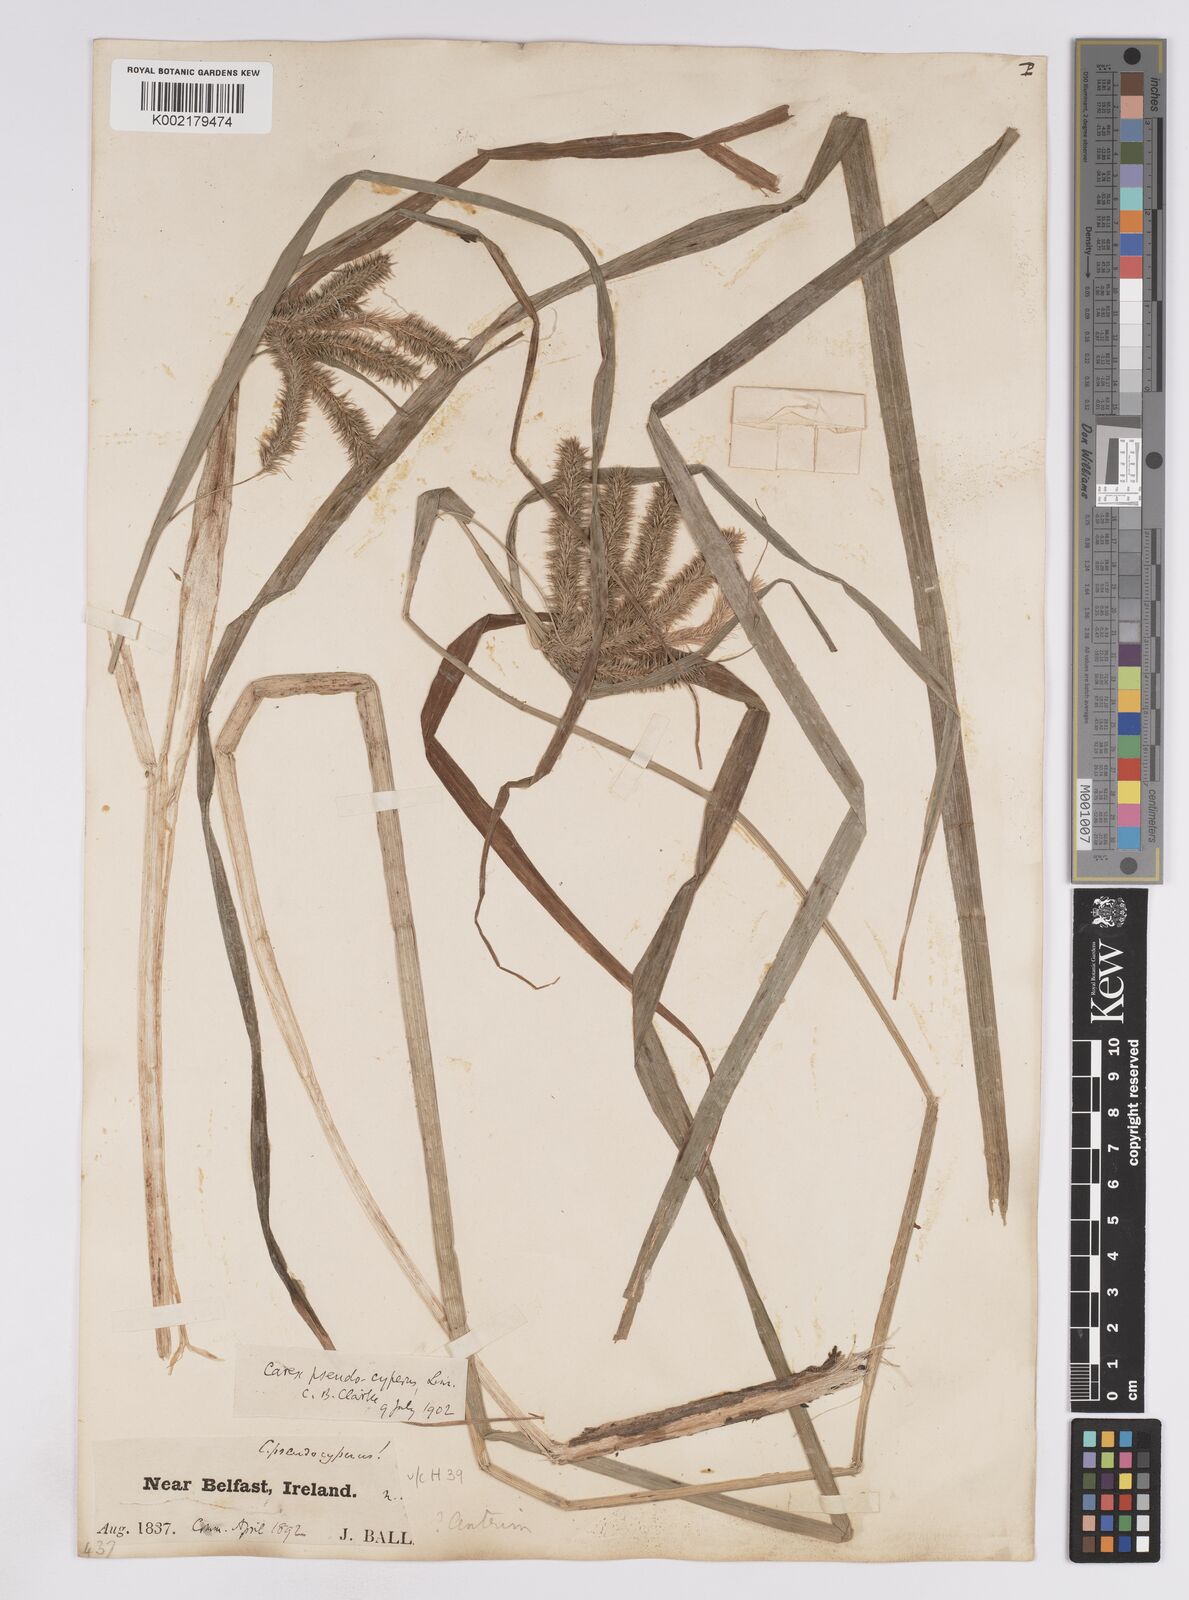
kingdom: Plantae
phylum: Tracheophyta
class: Liliopsida
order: Poales
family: Cyperaceae
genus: Carex
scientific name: Carex pseudocyperus
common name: Cyperus sedge
